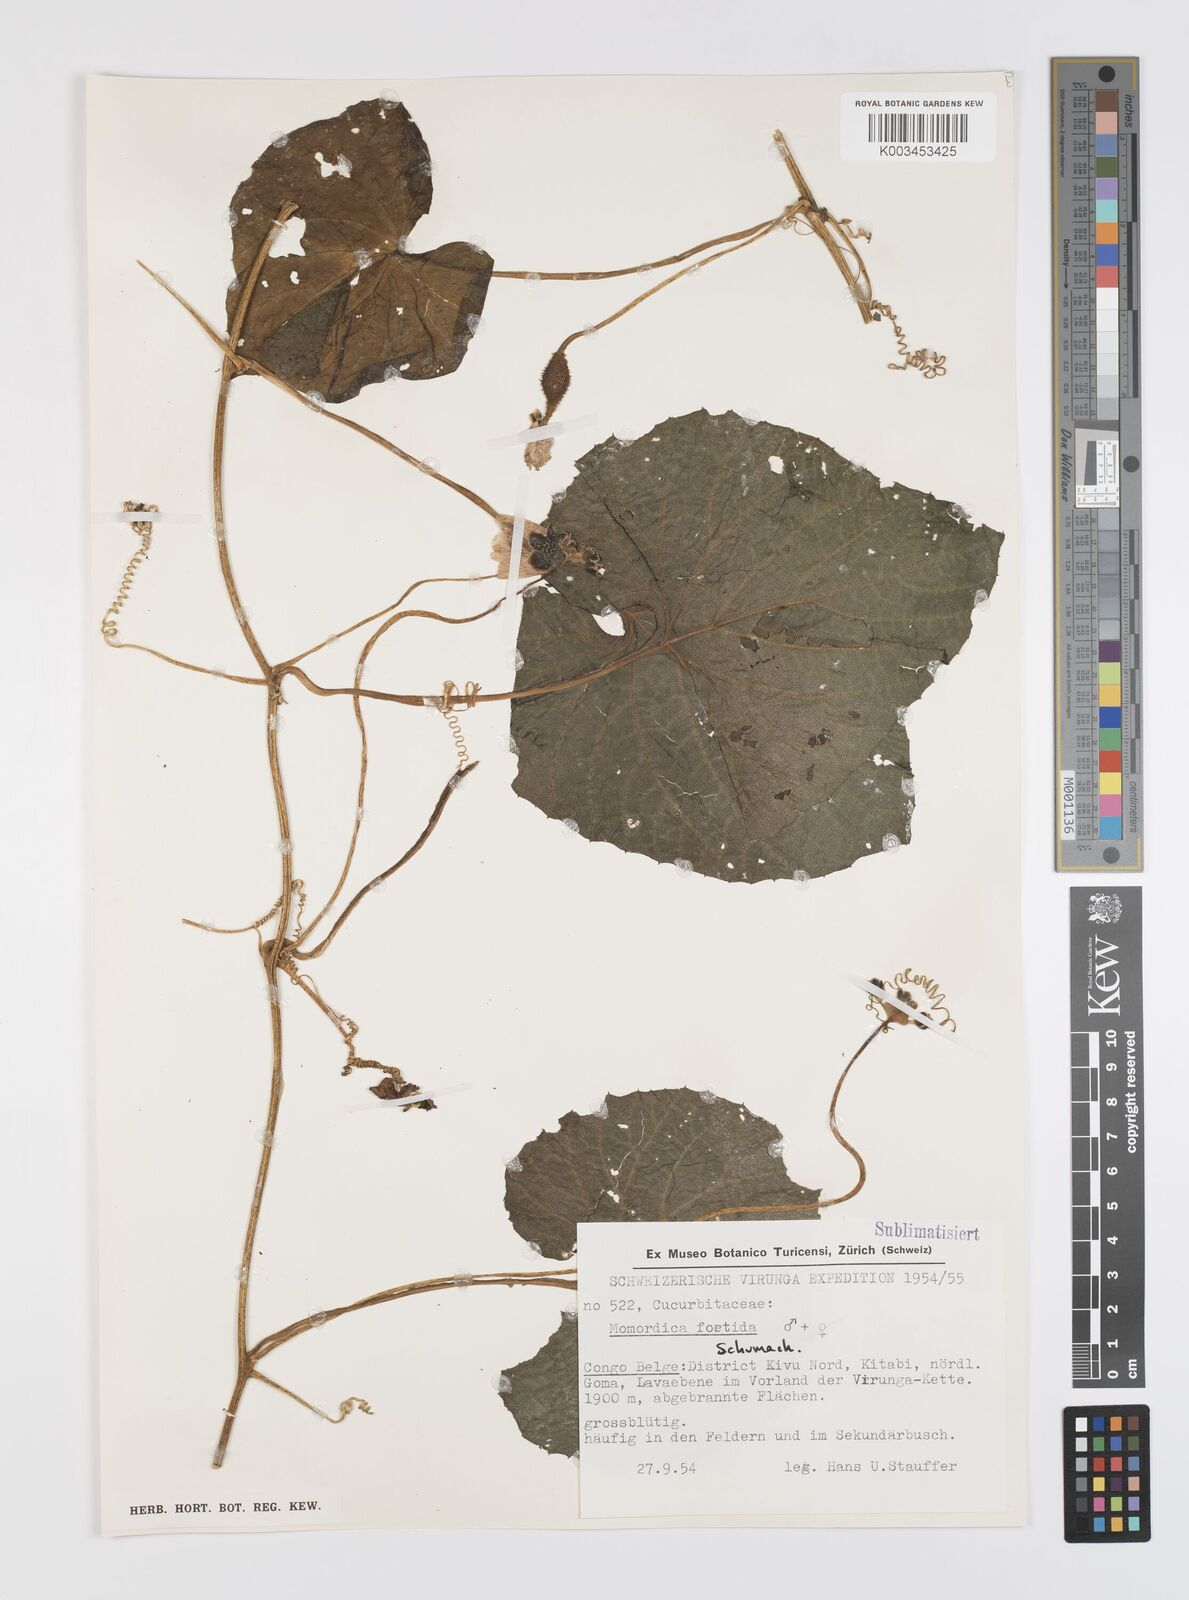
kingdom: Plantae
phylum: Tracheophyta
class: Magnoliopsida
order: Cucurbitales
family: Cucurbitaceae
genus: Momordica
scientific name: Momordica foetida
